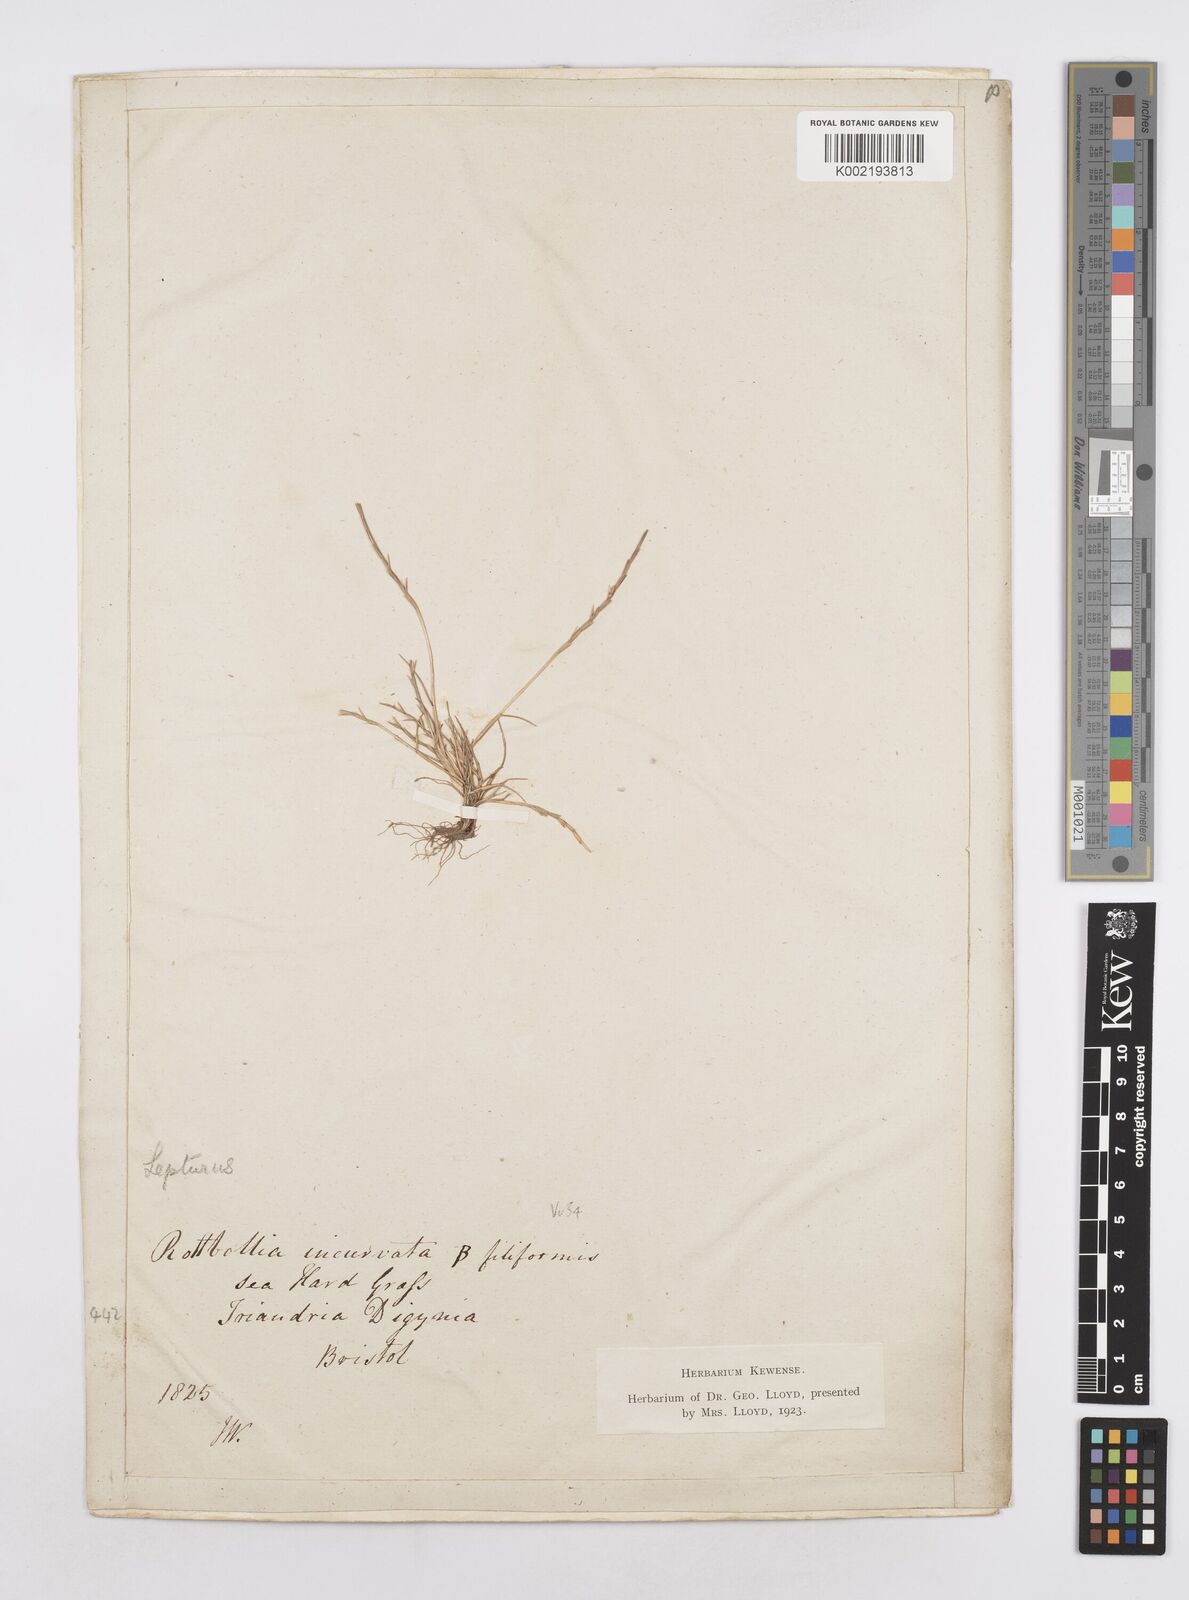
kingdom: Plantae
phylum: Tracheophyta
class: Liliopsida
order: Poales
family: Poaceae
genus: Parapholis
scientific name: Parapholis strigosa
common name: Hard-grass
